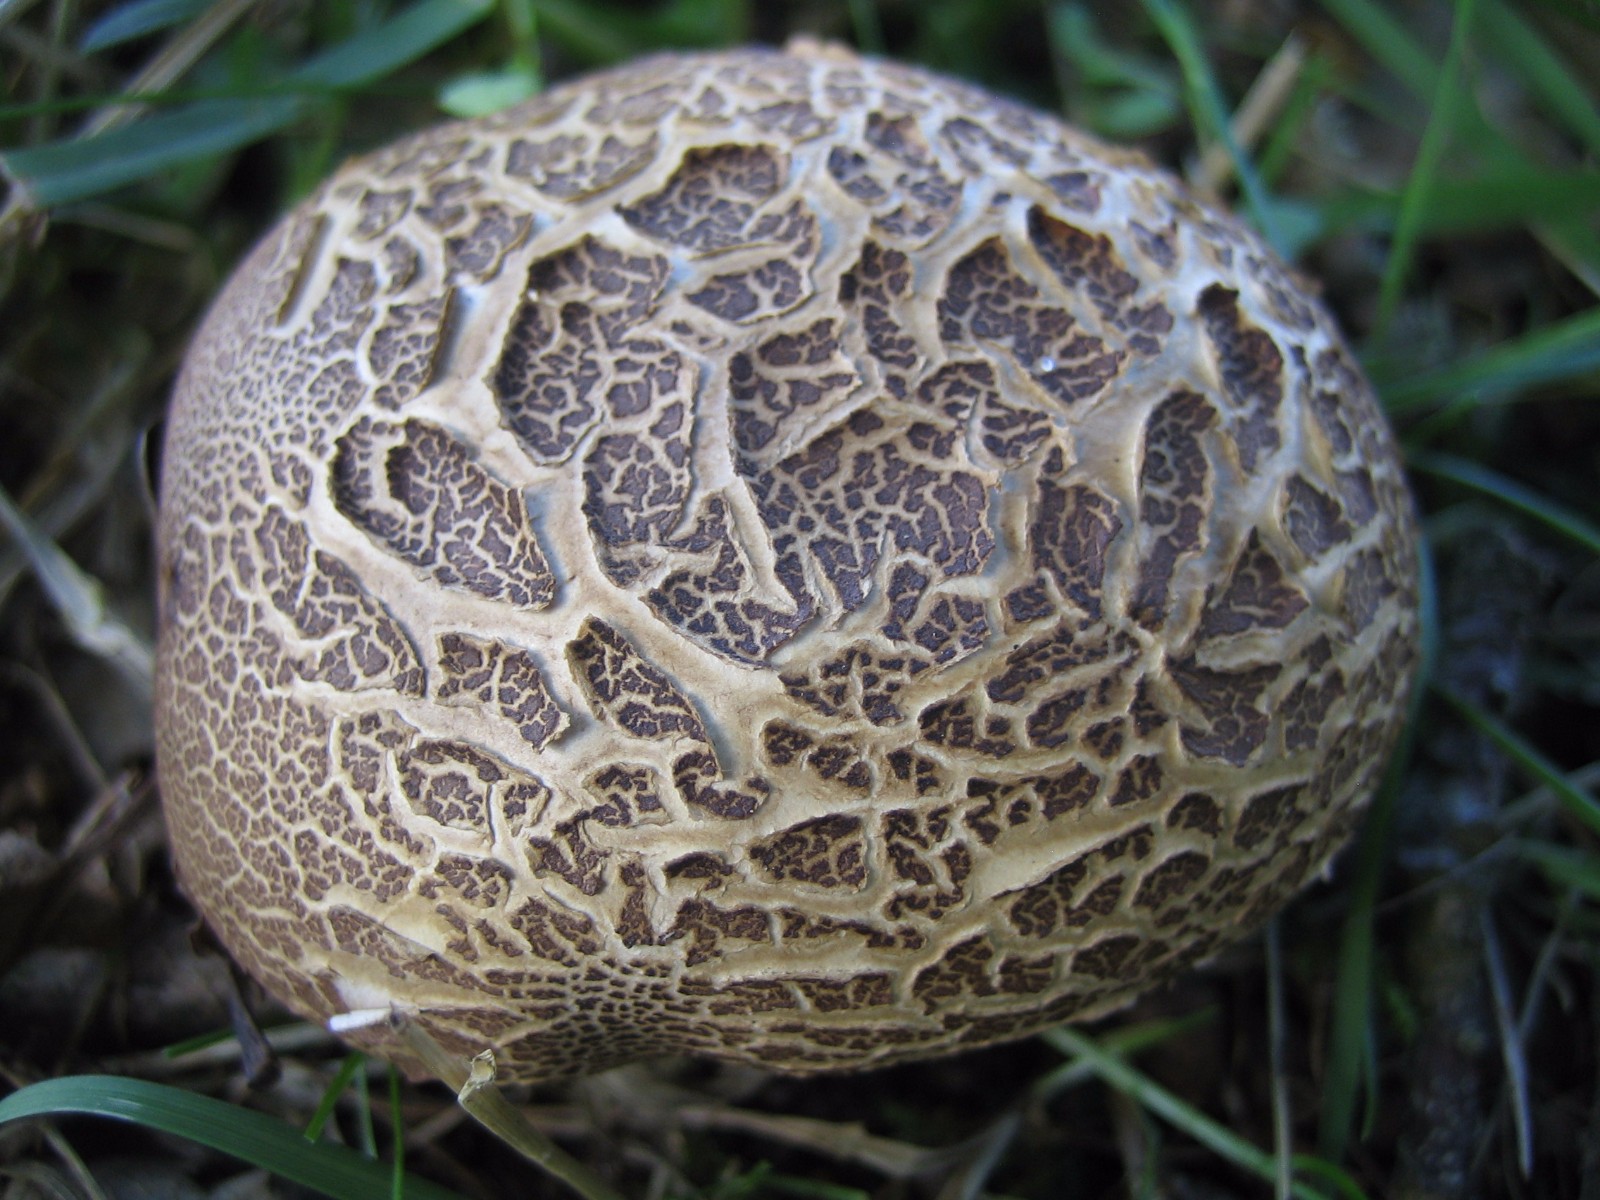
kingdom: Fungi
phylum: Basidiomycota
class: Agaricomycetes
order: Boletales
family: Sclerodermataceae
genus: Scleroderma
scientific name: Scleroderma verrucosum
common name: stilket bruskbold
